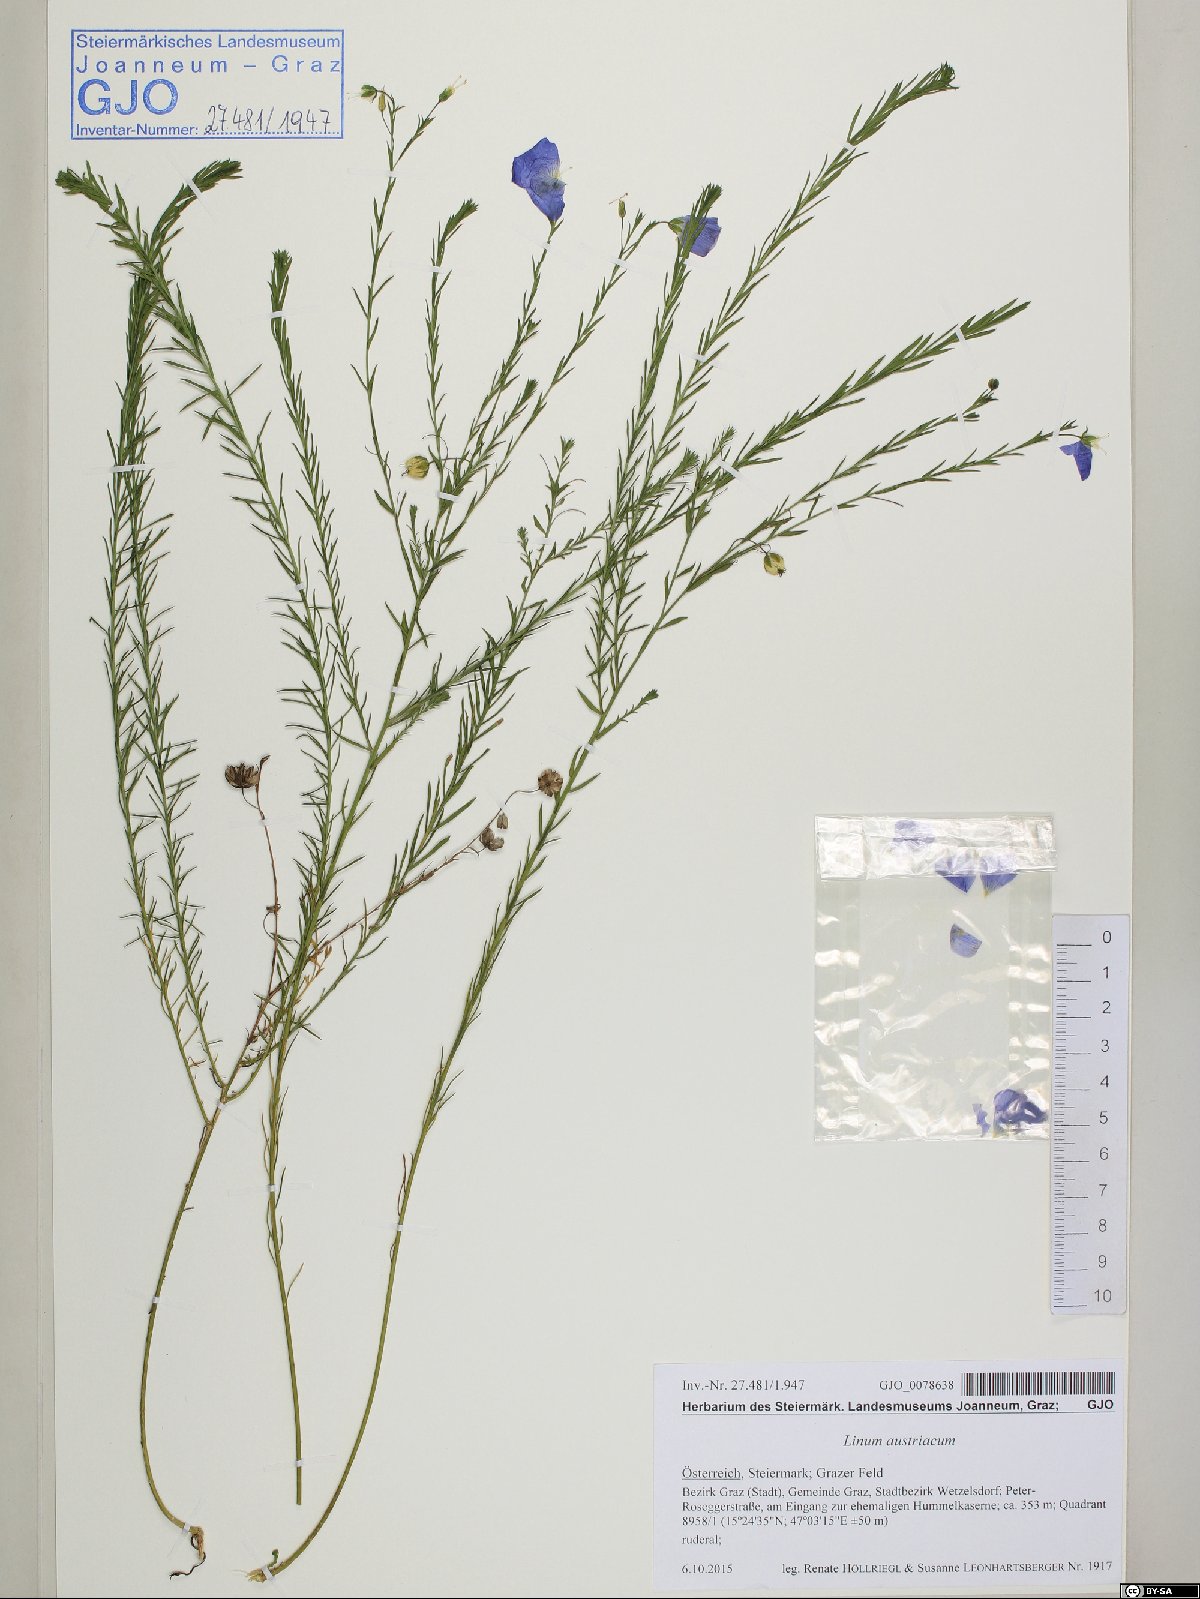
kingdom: Plantae
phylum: Tracheophyta
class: Magnoliopsida
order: Malpighiales
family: Linaceae
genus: Linum
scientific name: Linum austriacum
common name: Austrian flax
